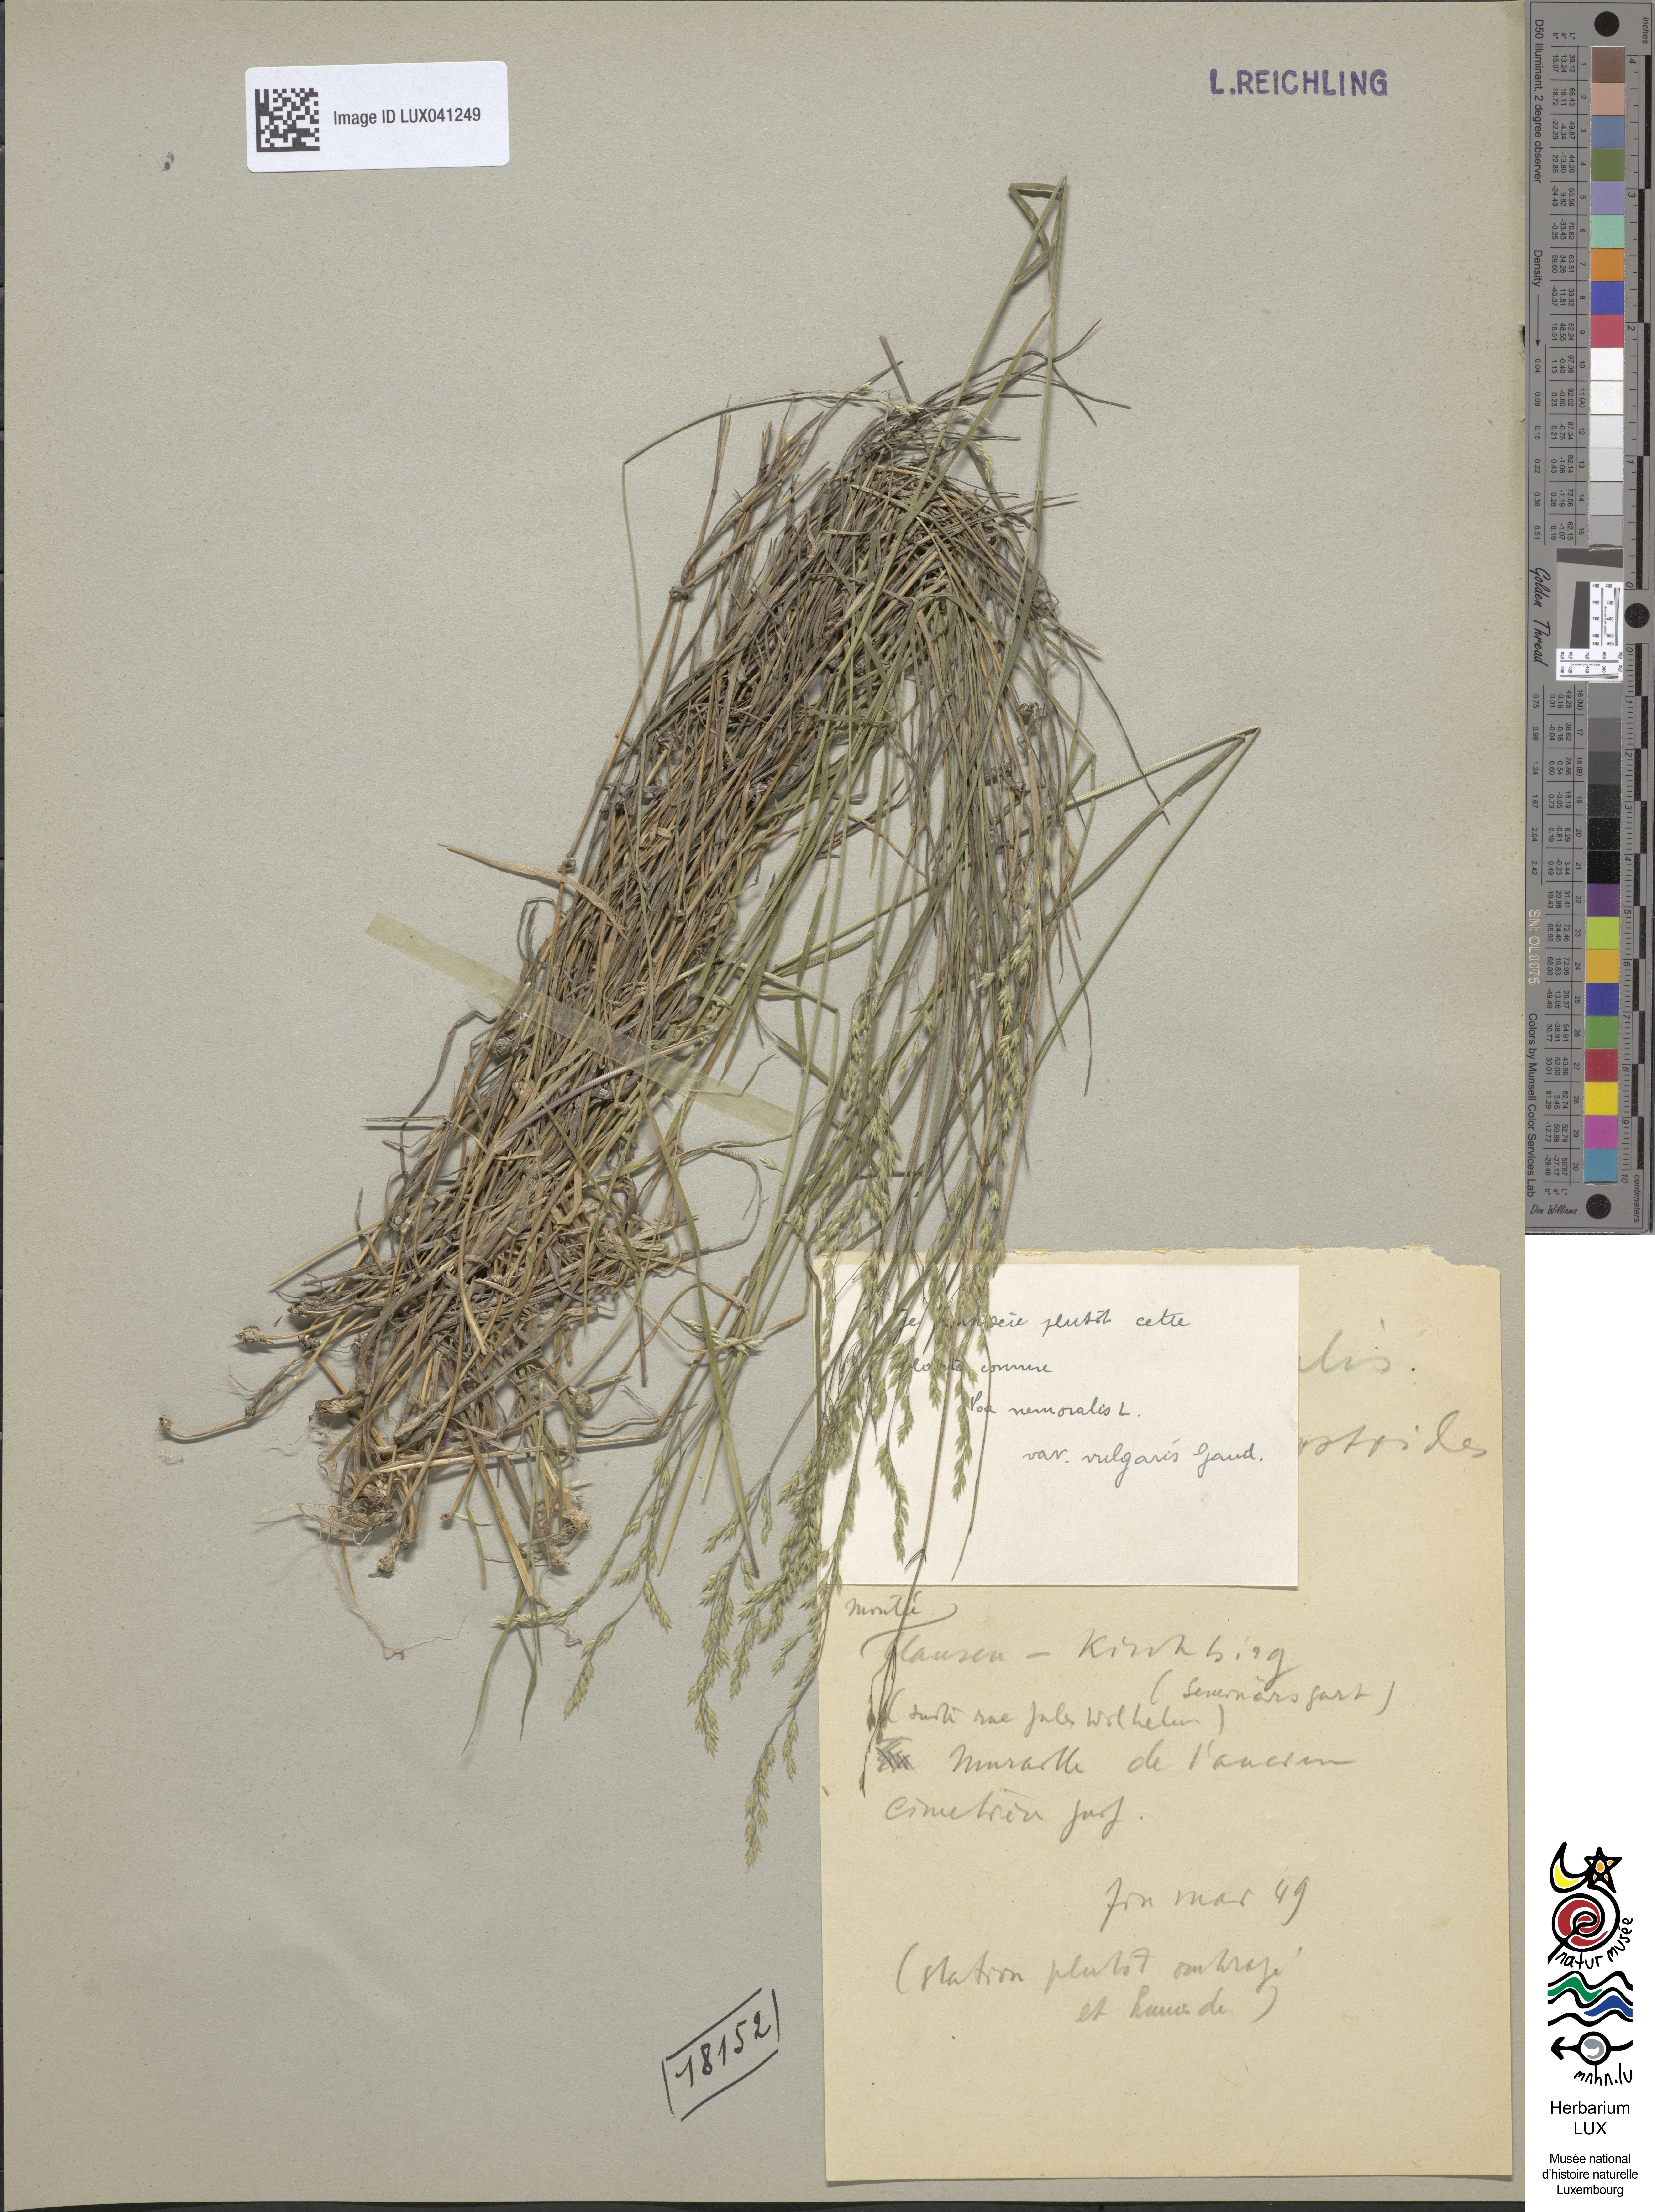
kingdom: Plantae
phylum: Tracheophyta
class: Liliopsida
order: Poales
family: Poaceae
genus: Poa
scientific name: Poa nemoralis
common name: Wood bluegrass
